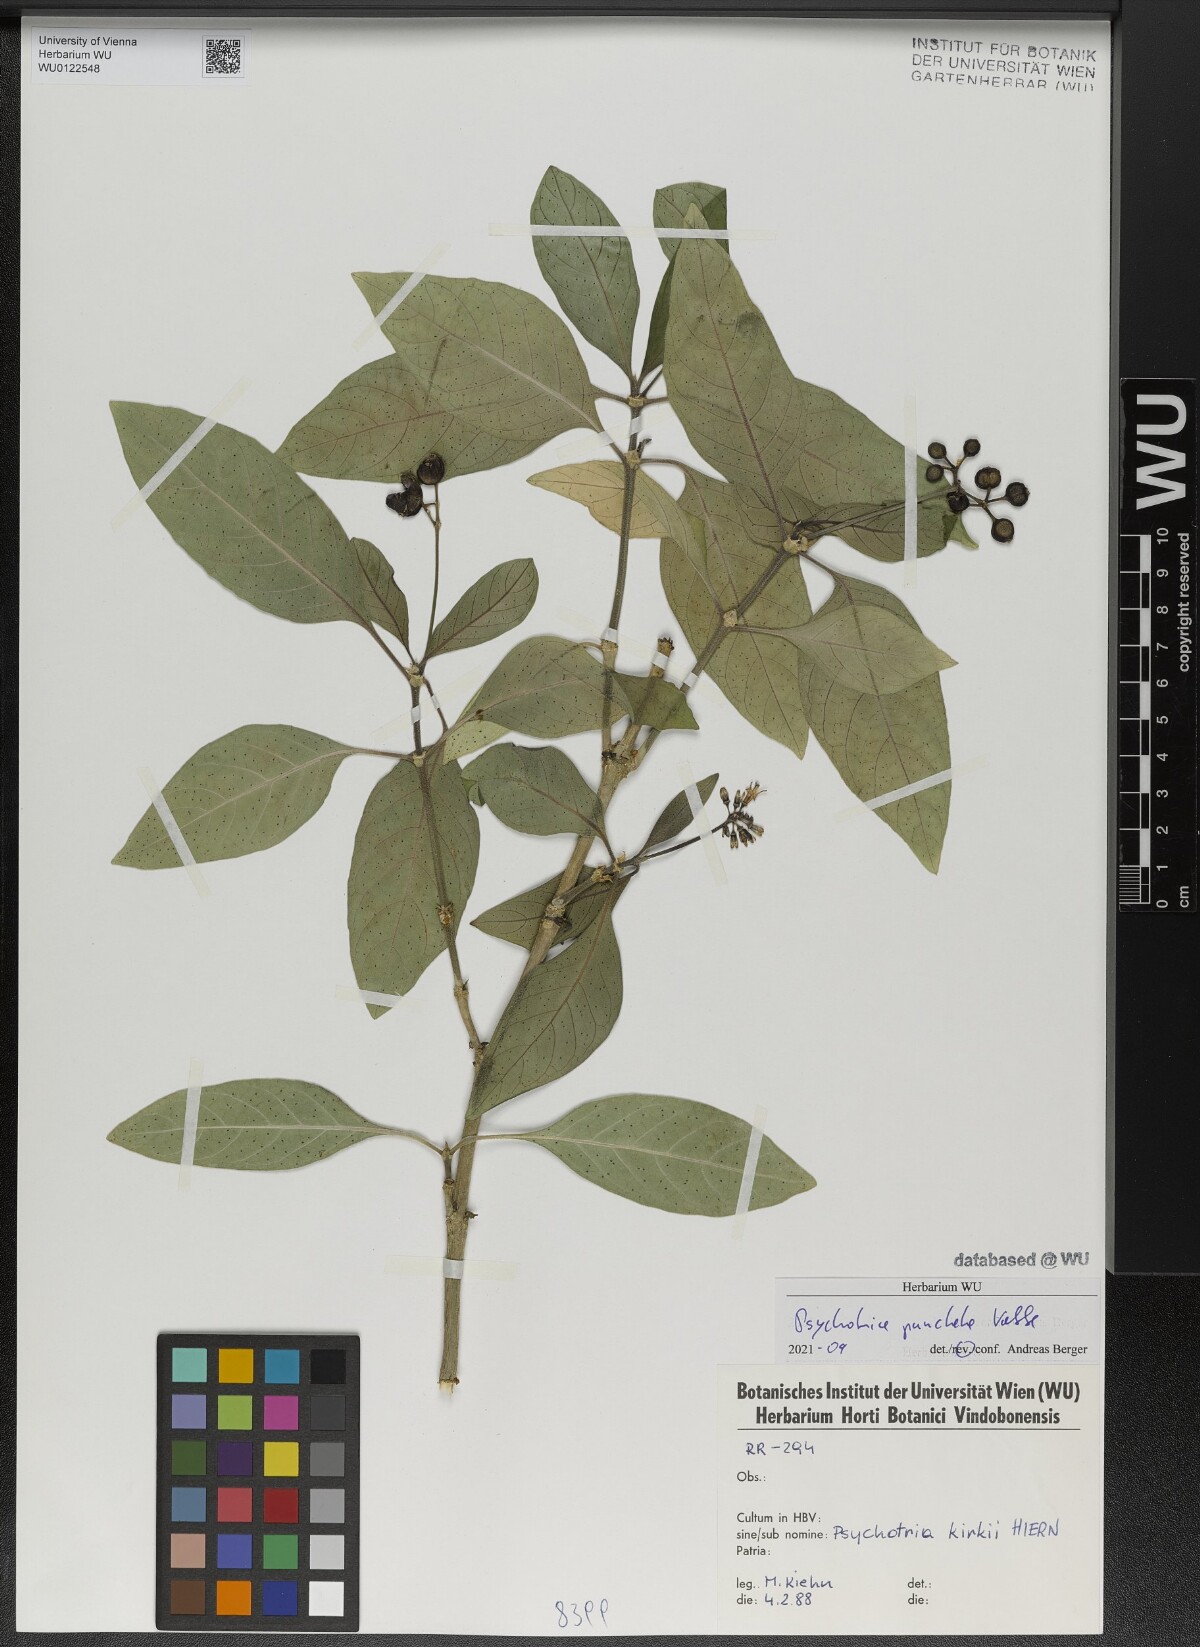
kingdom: Plantae
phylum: Tracheophyta
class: Magnoliopsida
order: Gentianales
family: Rubiaceae
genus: Psychotria
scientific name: Psychotria punctata
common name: Dotted wild coffee
